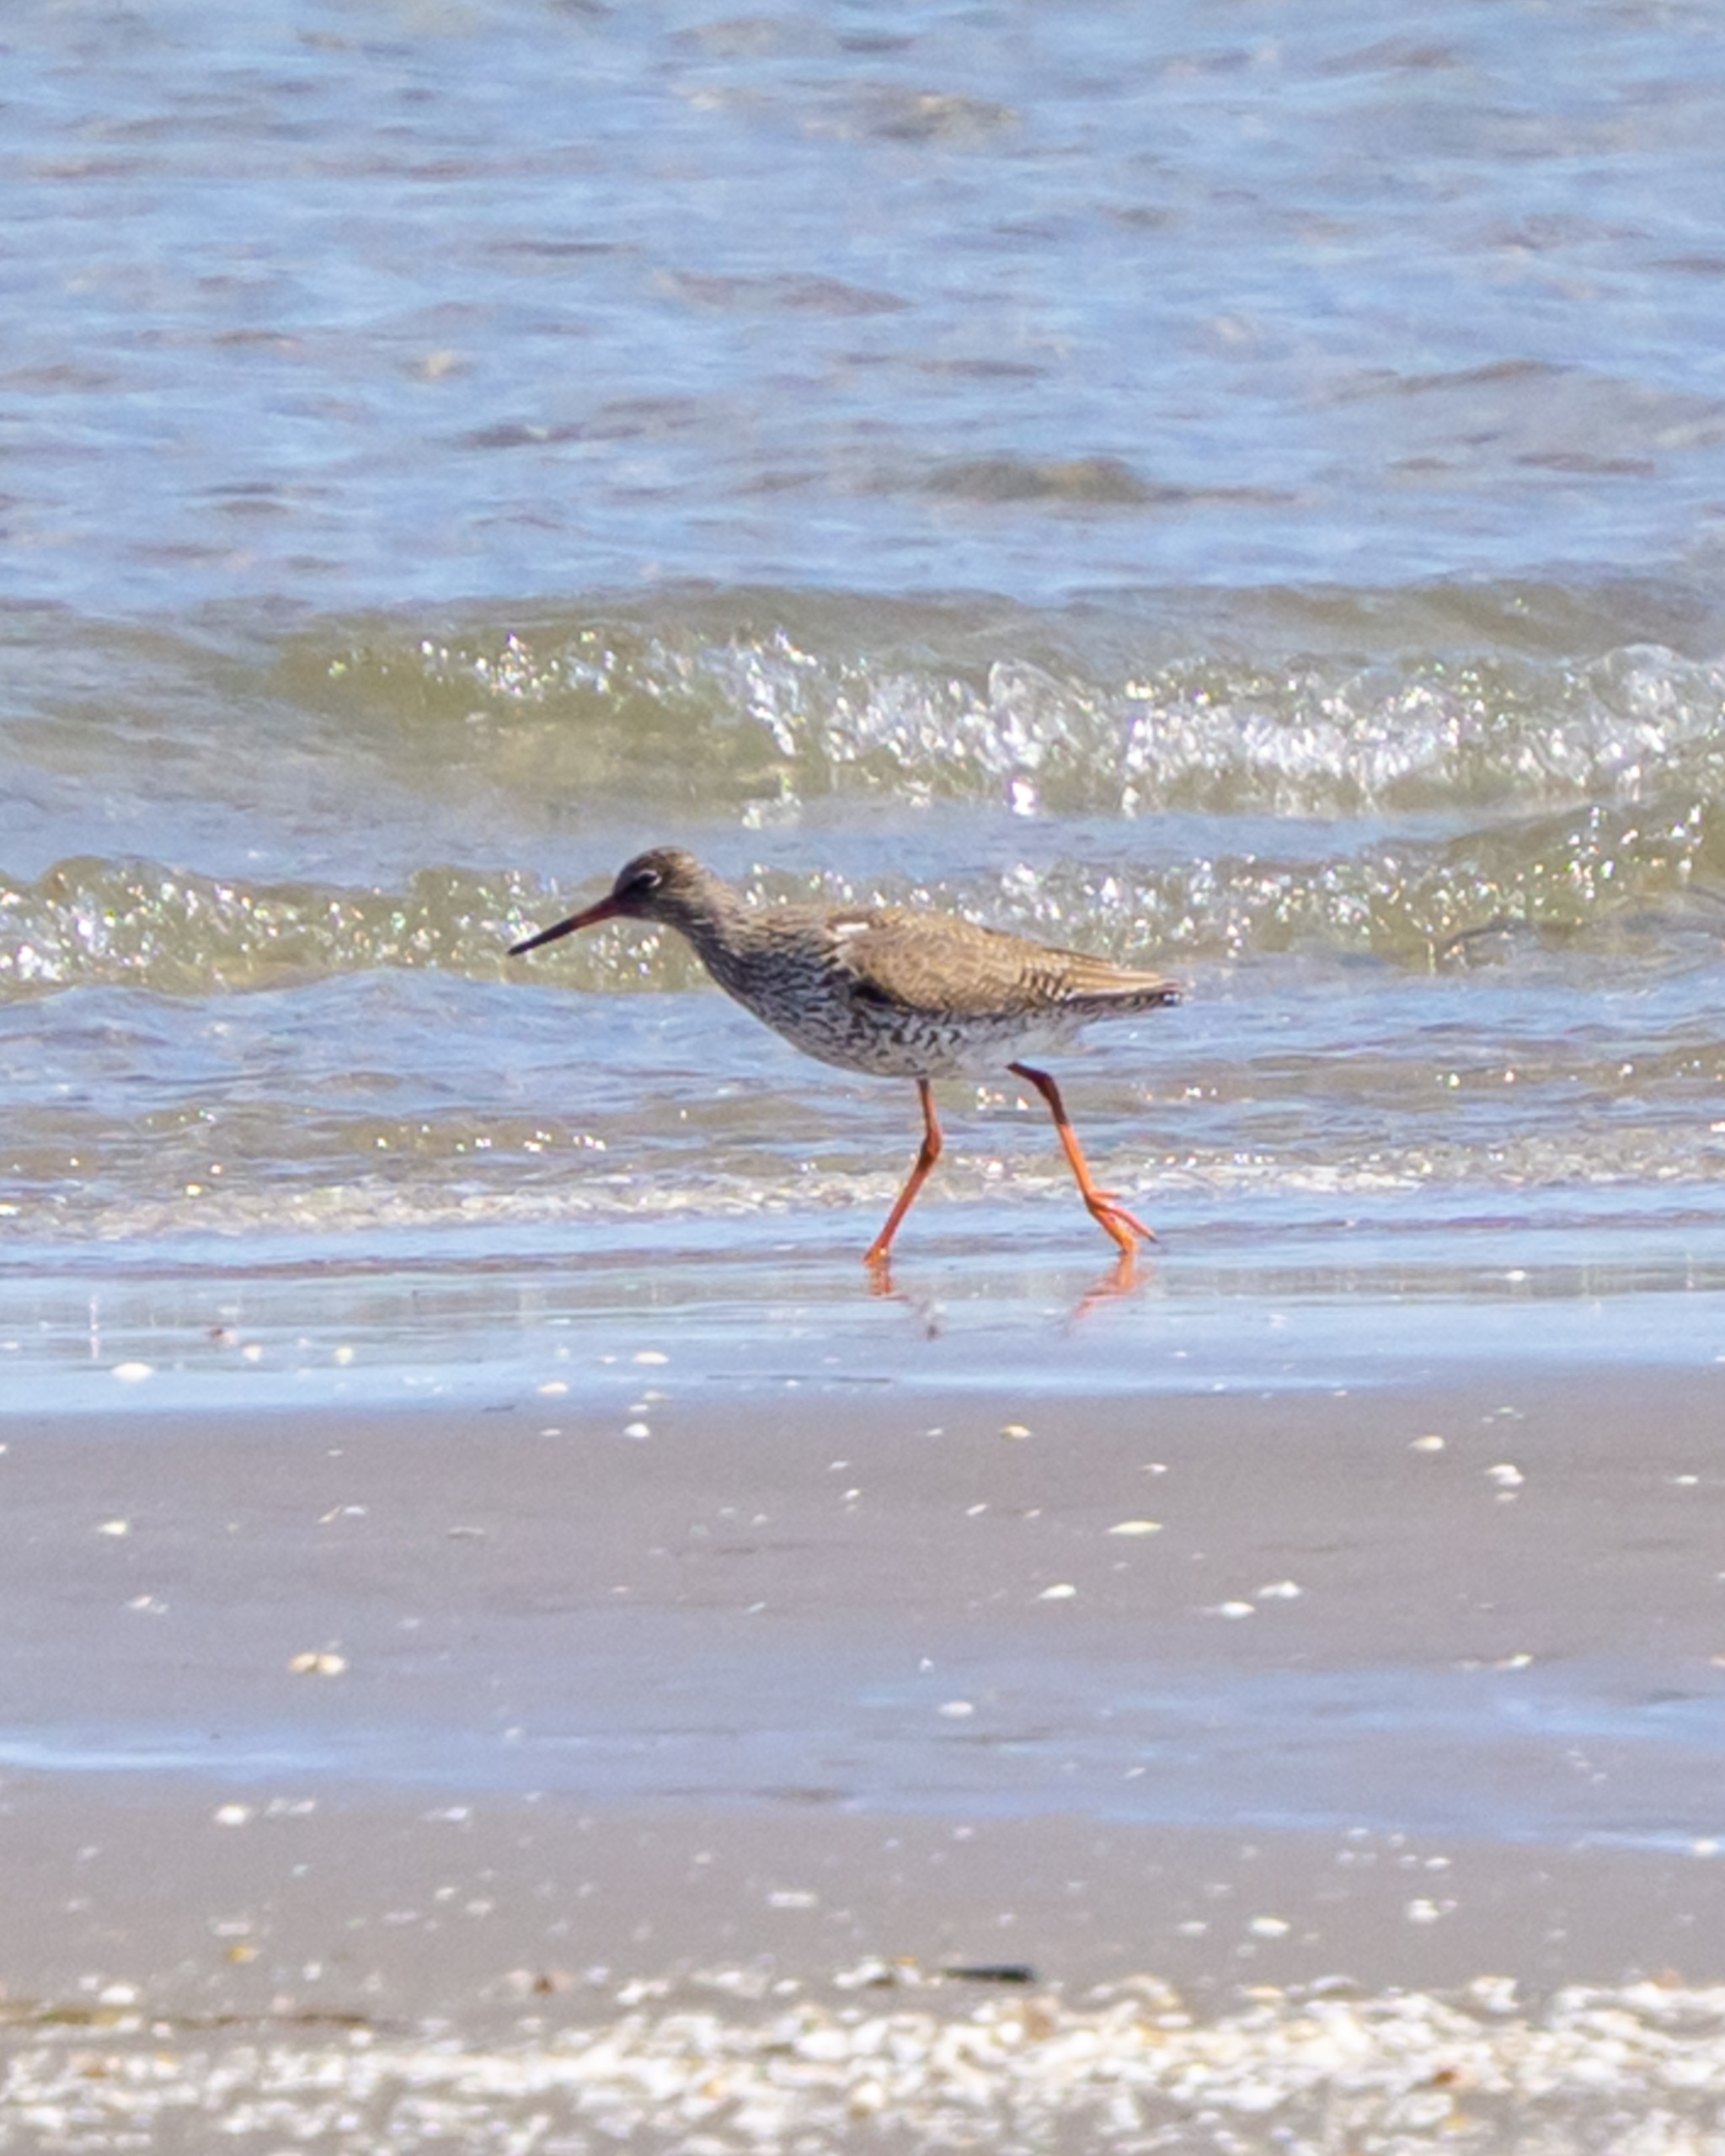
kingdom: Animalia
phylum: Chordata
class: Aves
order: Charadriiformes
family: Scolopacidae
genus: Tringa
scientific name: Tringa totanus
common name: Rødben
